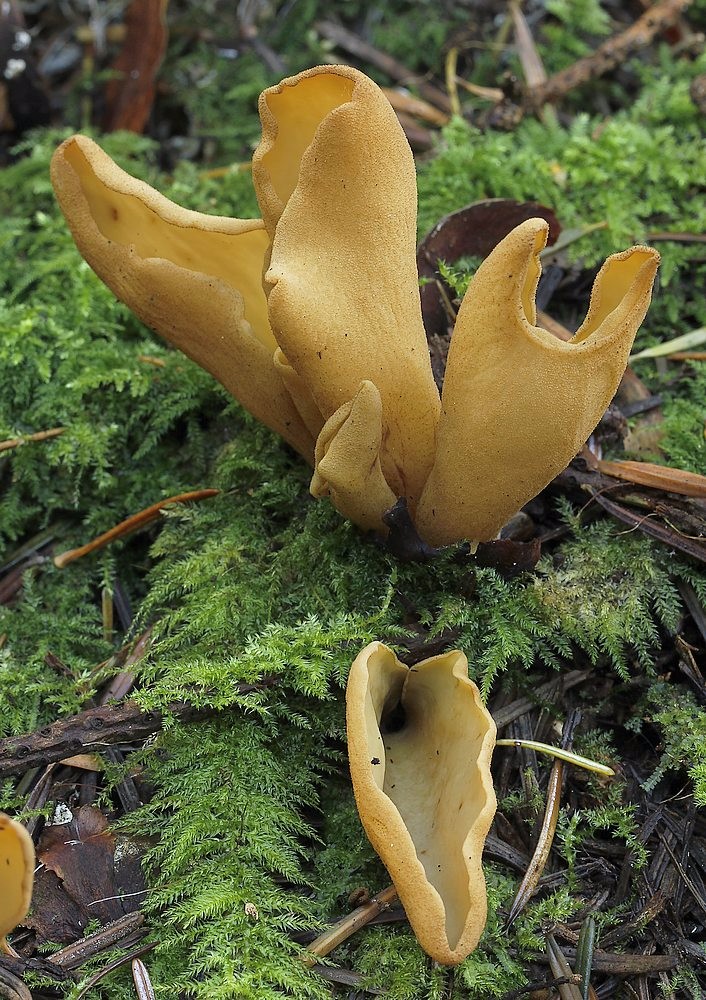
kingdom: Fungi
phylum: Ascomycota
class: Pezizomycetes
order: Pezizales
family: Otideaceae
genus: Otidea
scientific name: Otidea tuomikoskii
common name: kano-ørebæger
